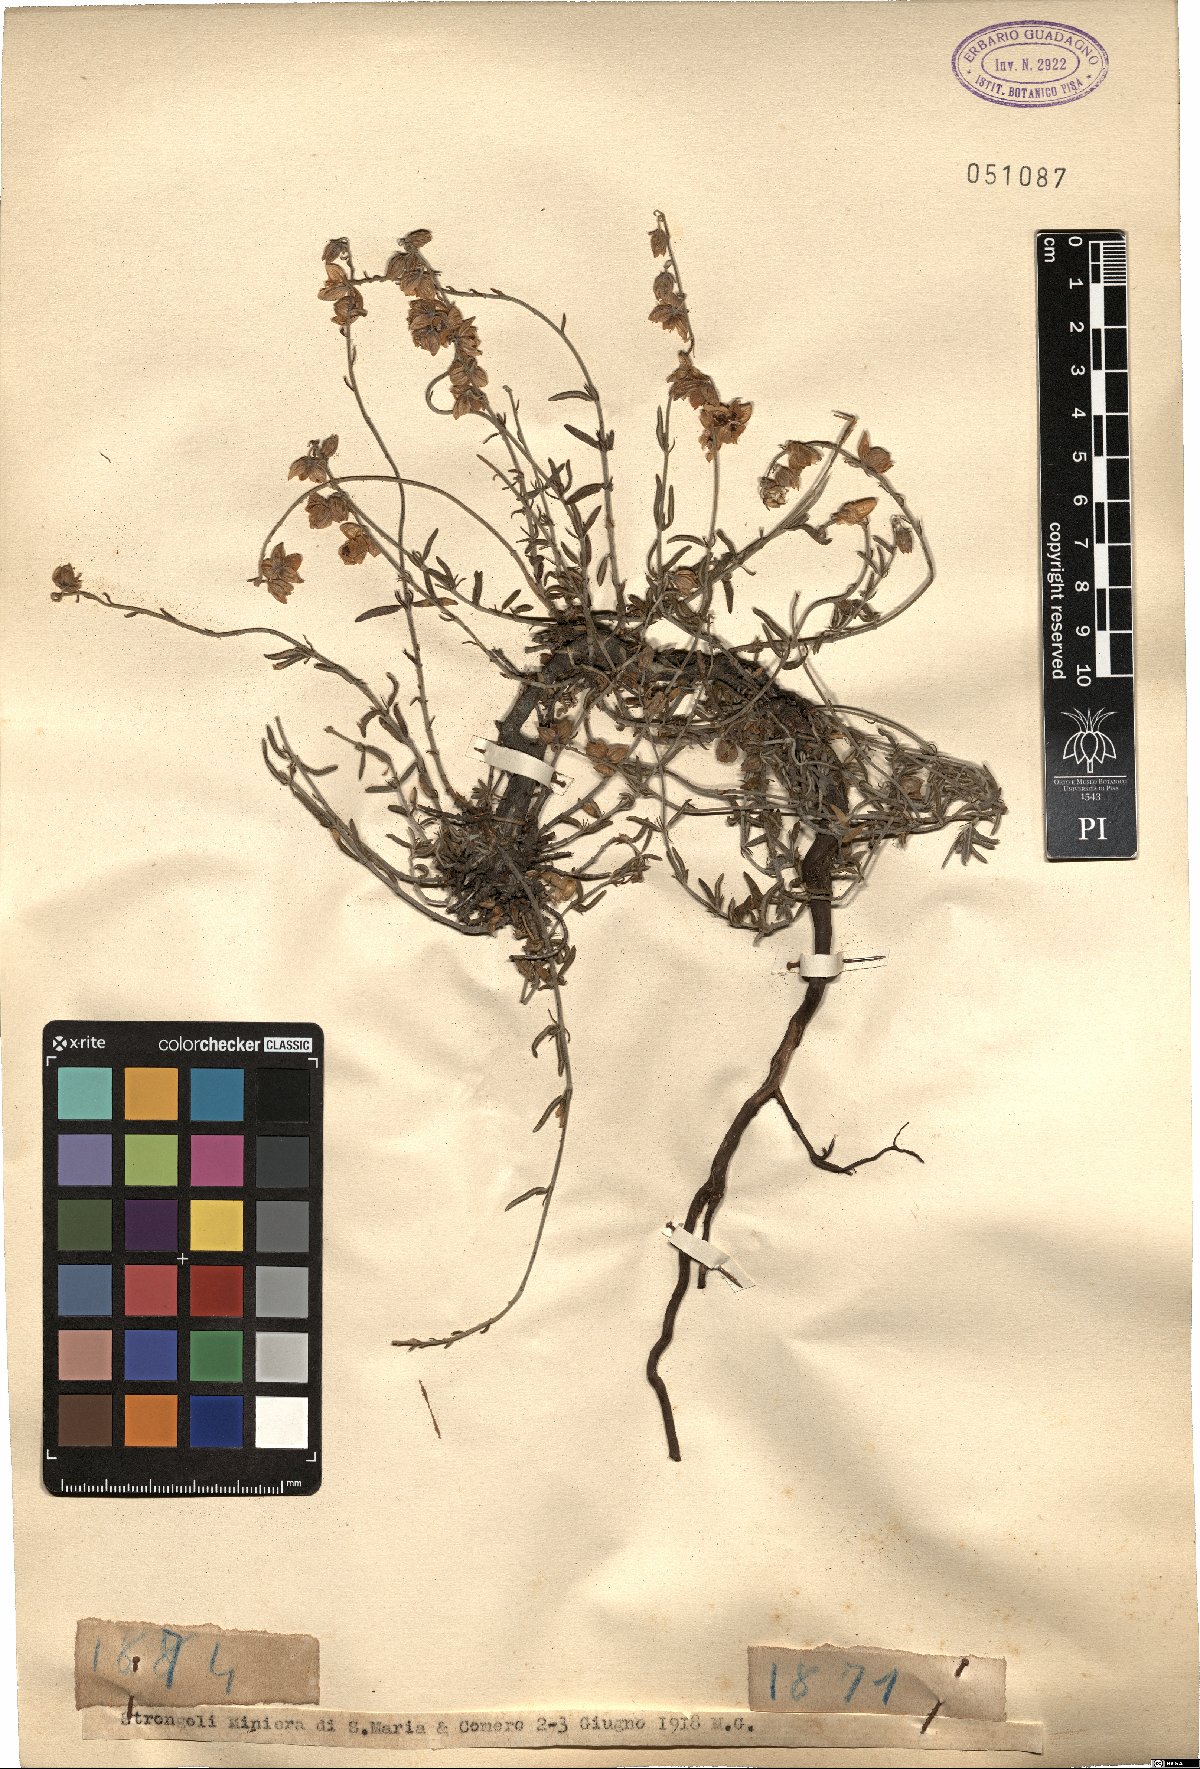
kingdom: Plantae
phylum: Tracheophyta
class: Magnoliopsida
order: Malvales
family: Cistaceae
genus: Helianthemum
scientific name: Helianthemum
